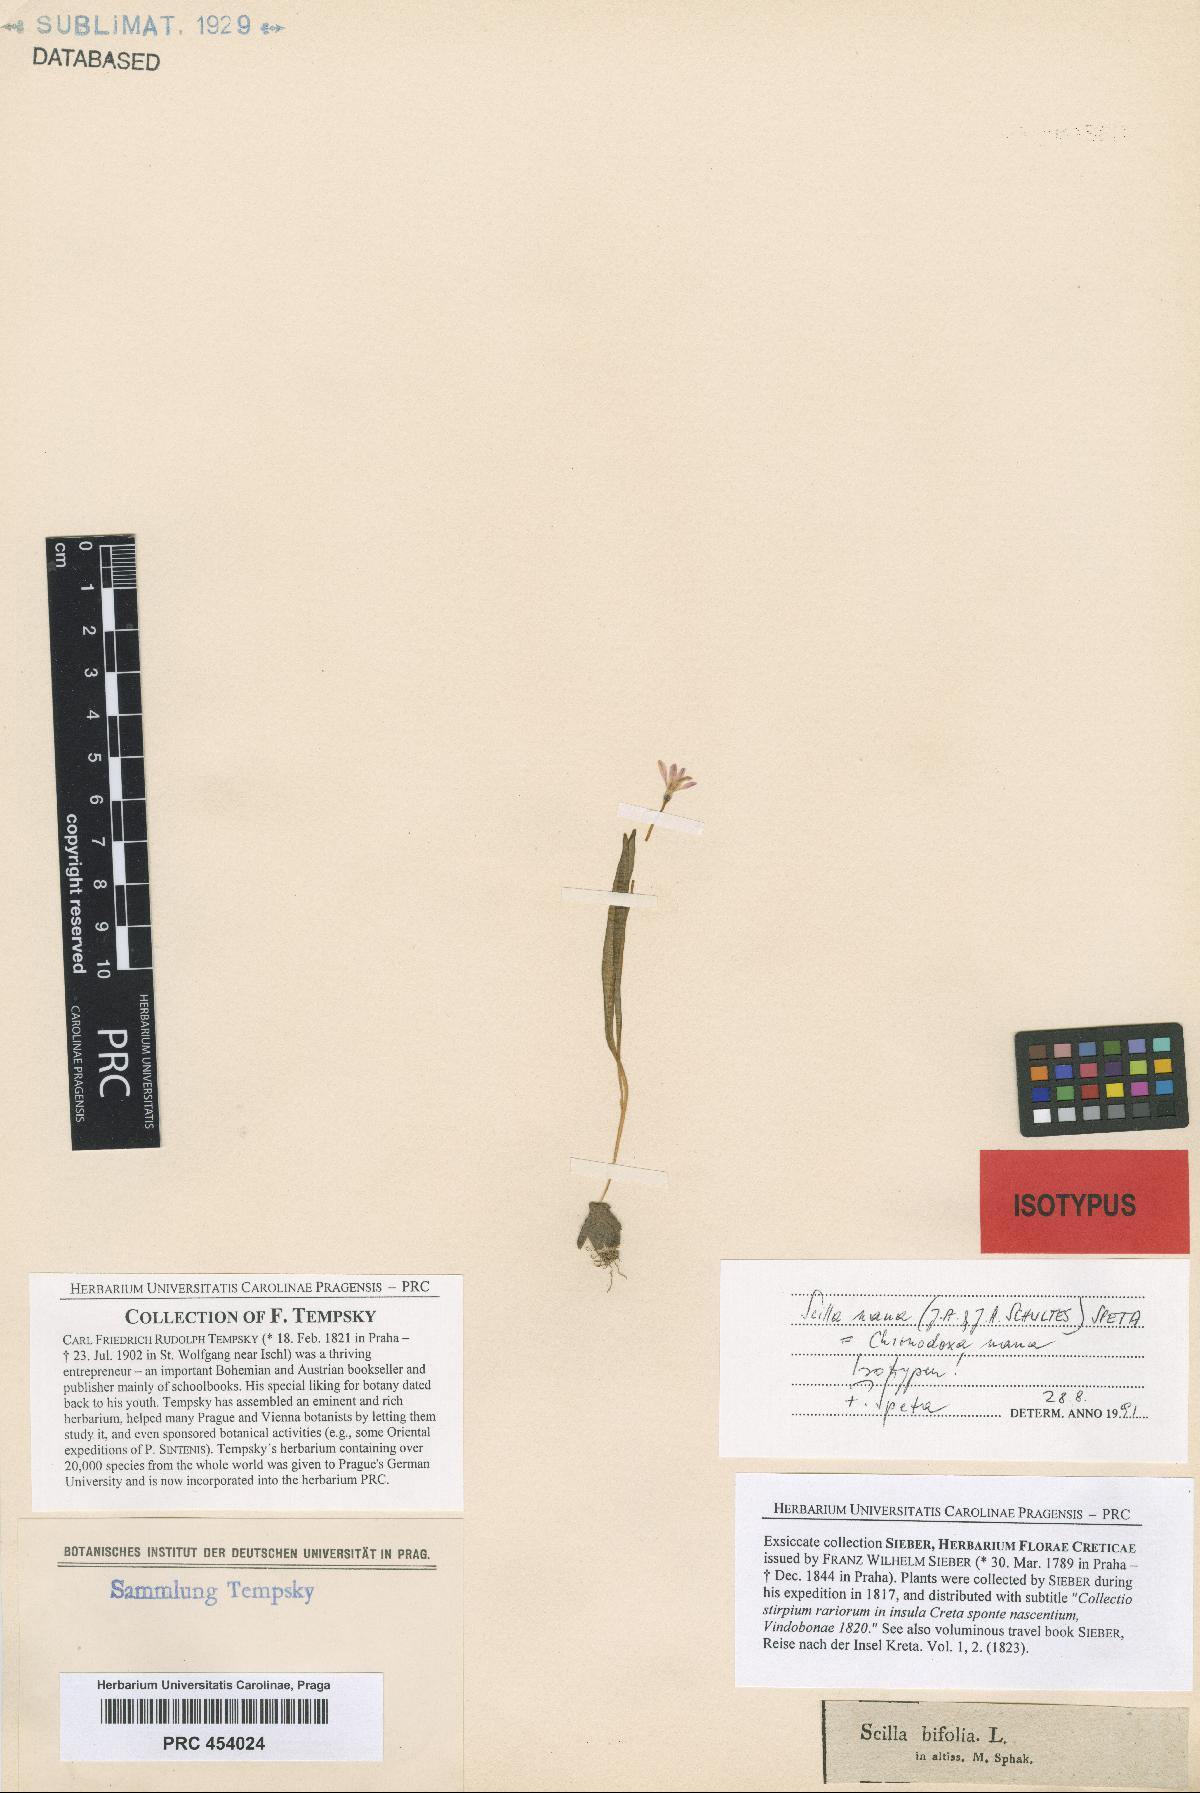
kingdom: Plantae
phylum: Tracheophyta
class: Liliopsida
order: Asparagales
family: Asparagaceae
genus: Scilla
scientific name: Scilla nana
